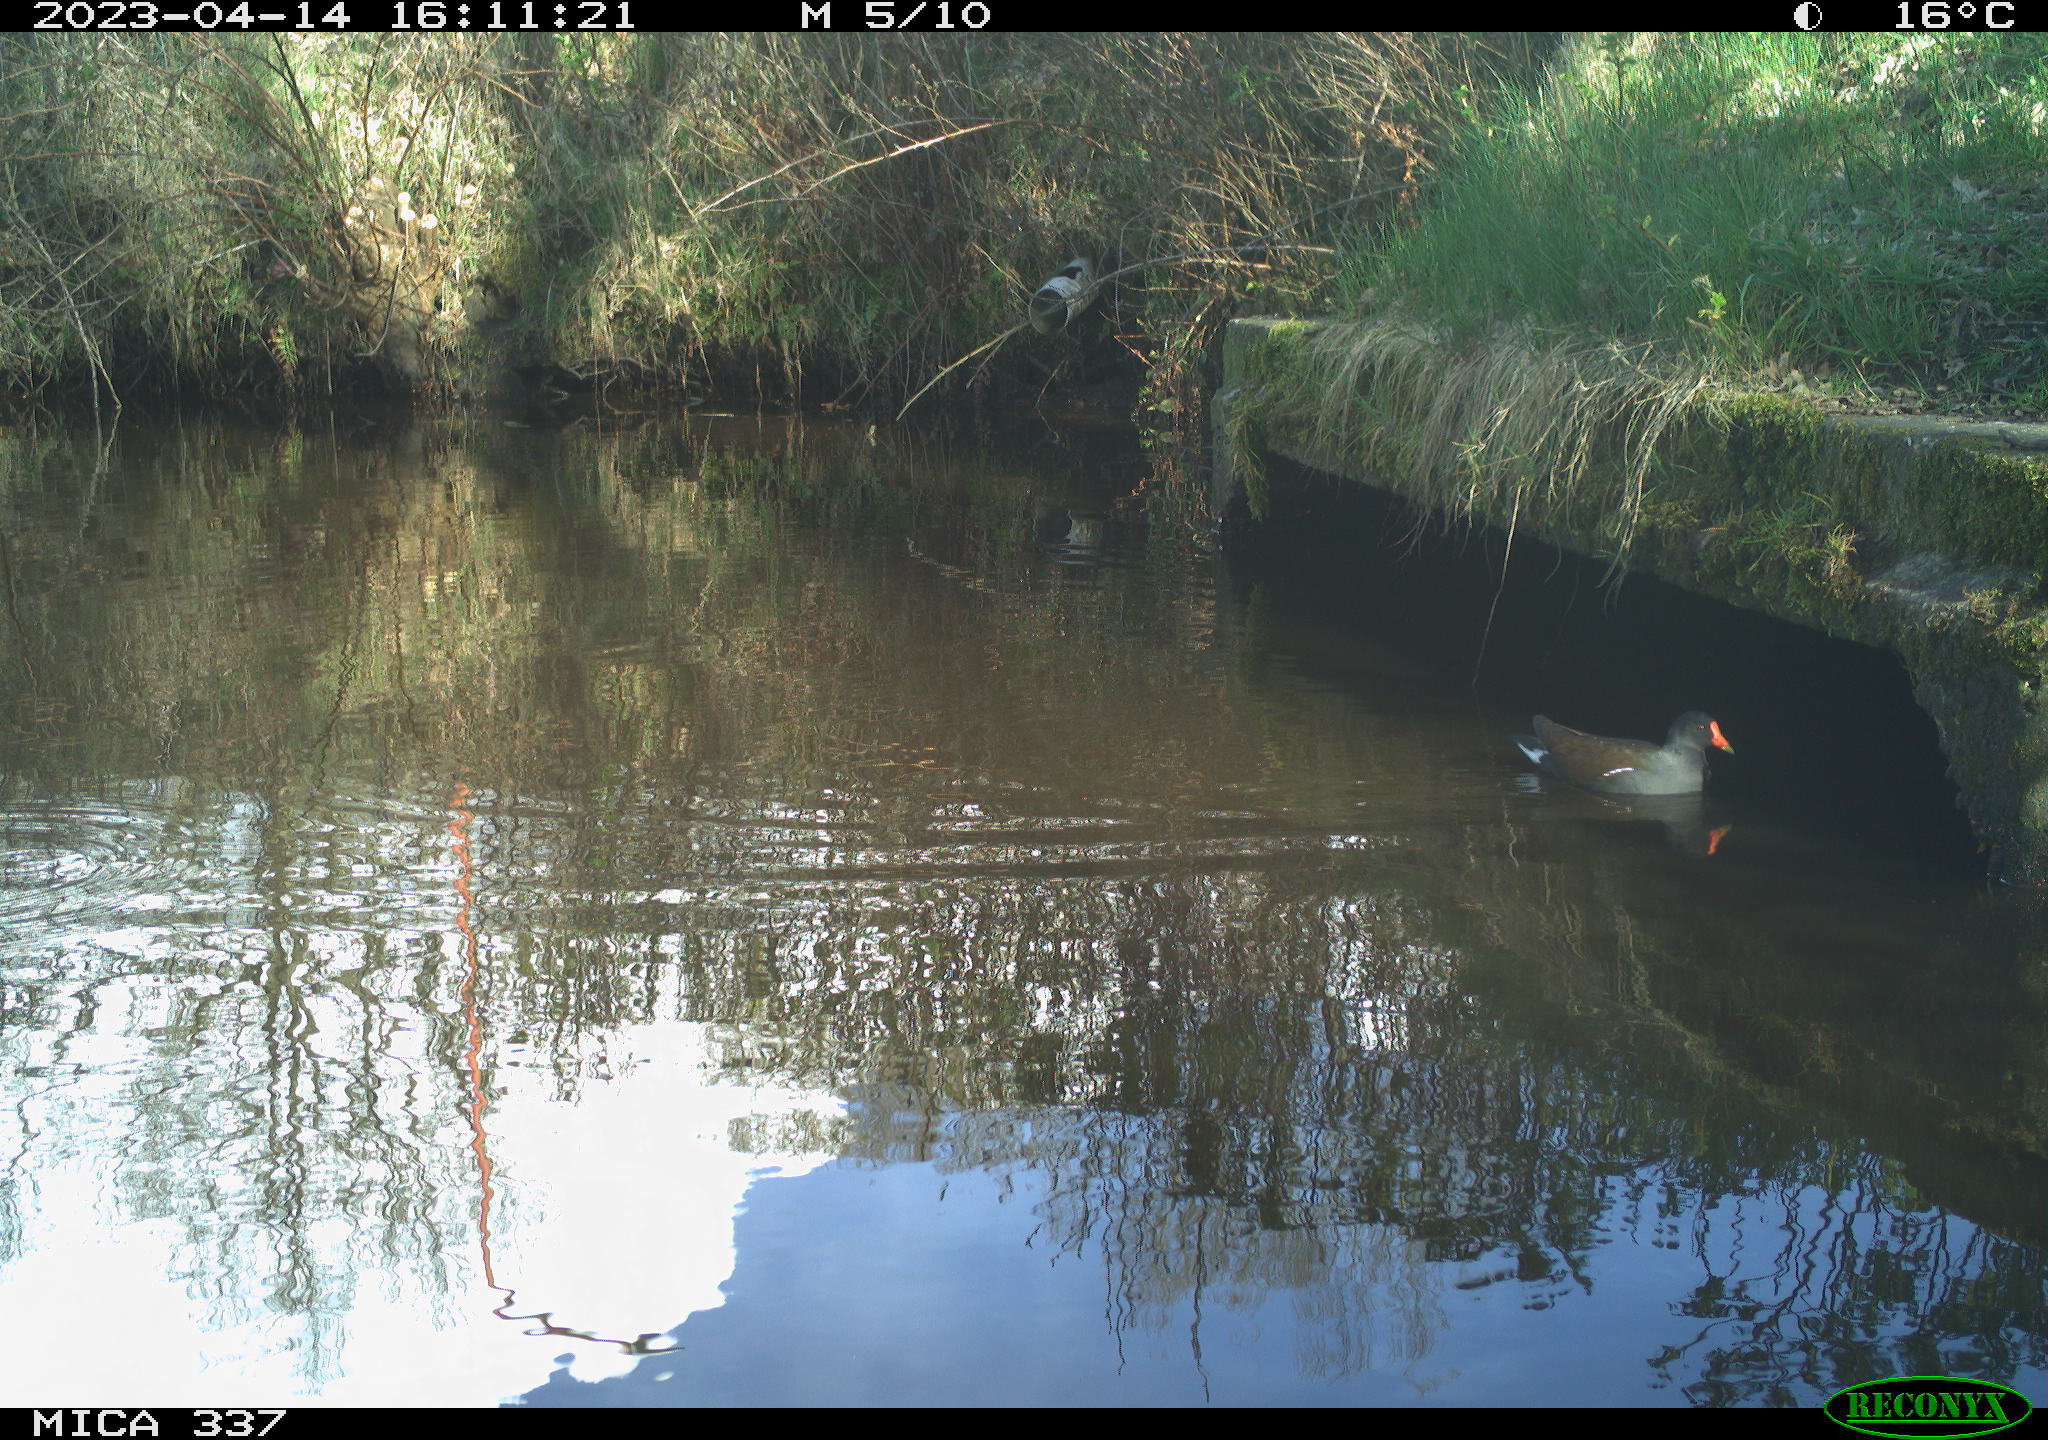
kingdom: Animalia
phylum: Chordata
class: Aves
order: Gruiformes
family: Rallidae
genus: Gallinula
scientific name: Gallinula chloropus
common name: Common moorhen
